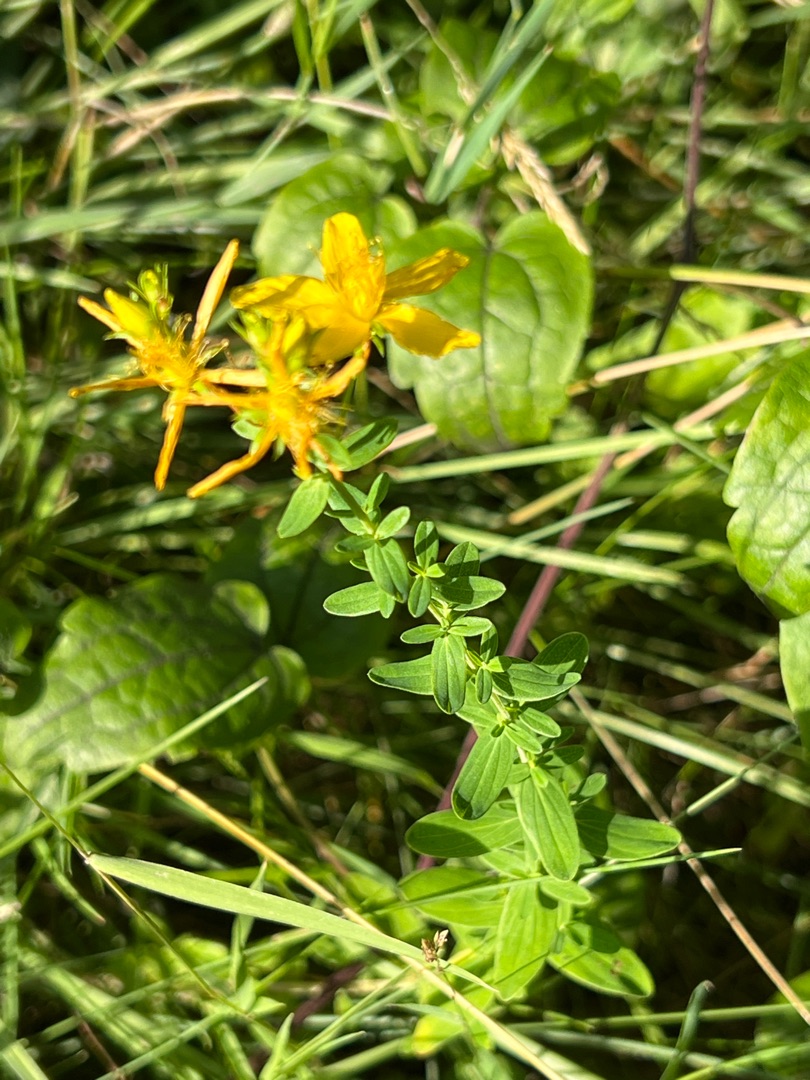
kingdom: Plantae
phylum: Tracheophyta
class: Magnoliopsida
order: Malpighiales
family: Hypericaceae
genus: Hypericum
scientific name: Hypericum perforatum
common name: Prikbladet perikon
